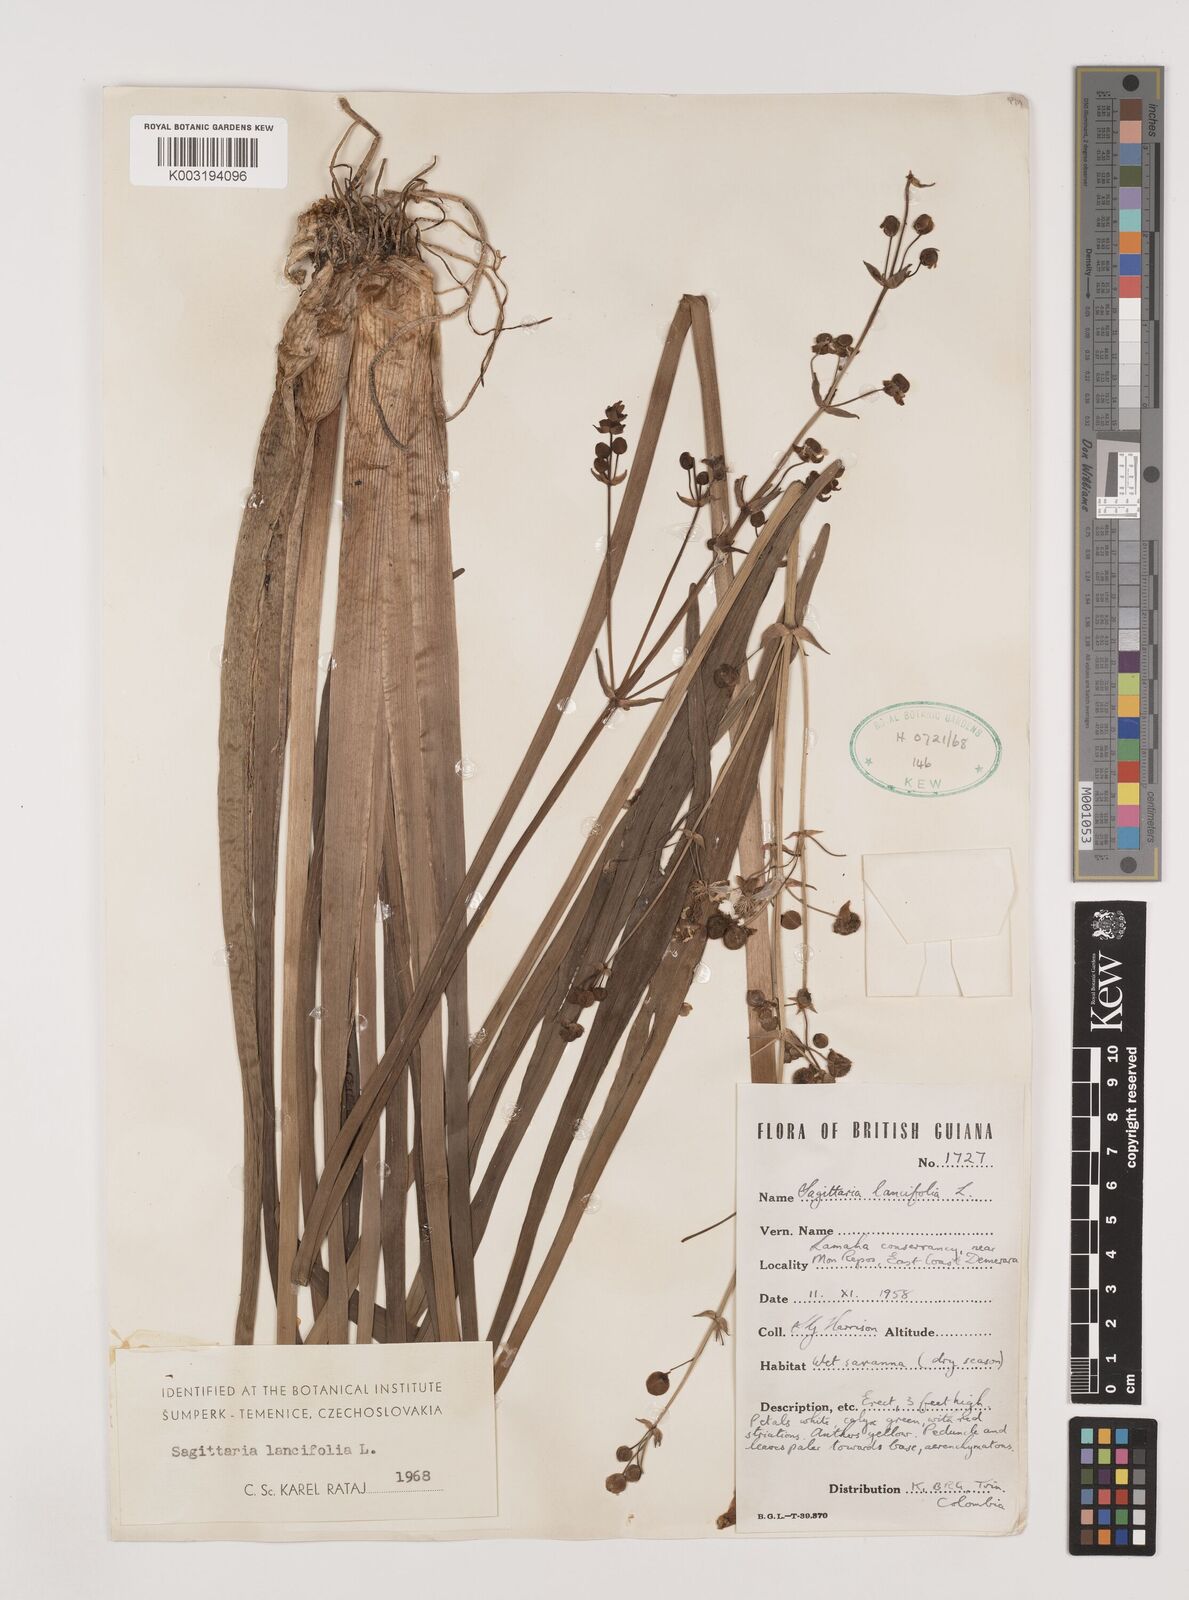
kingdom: Plantae
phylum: Tracheophyta
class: Liliopsida
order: Alismatales
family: Alismataceae
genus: Sagittaria
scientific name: Sagittaria lancifolia
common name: Lance-leaf arrowhead
